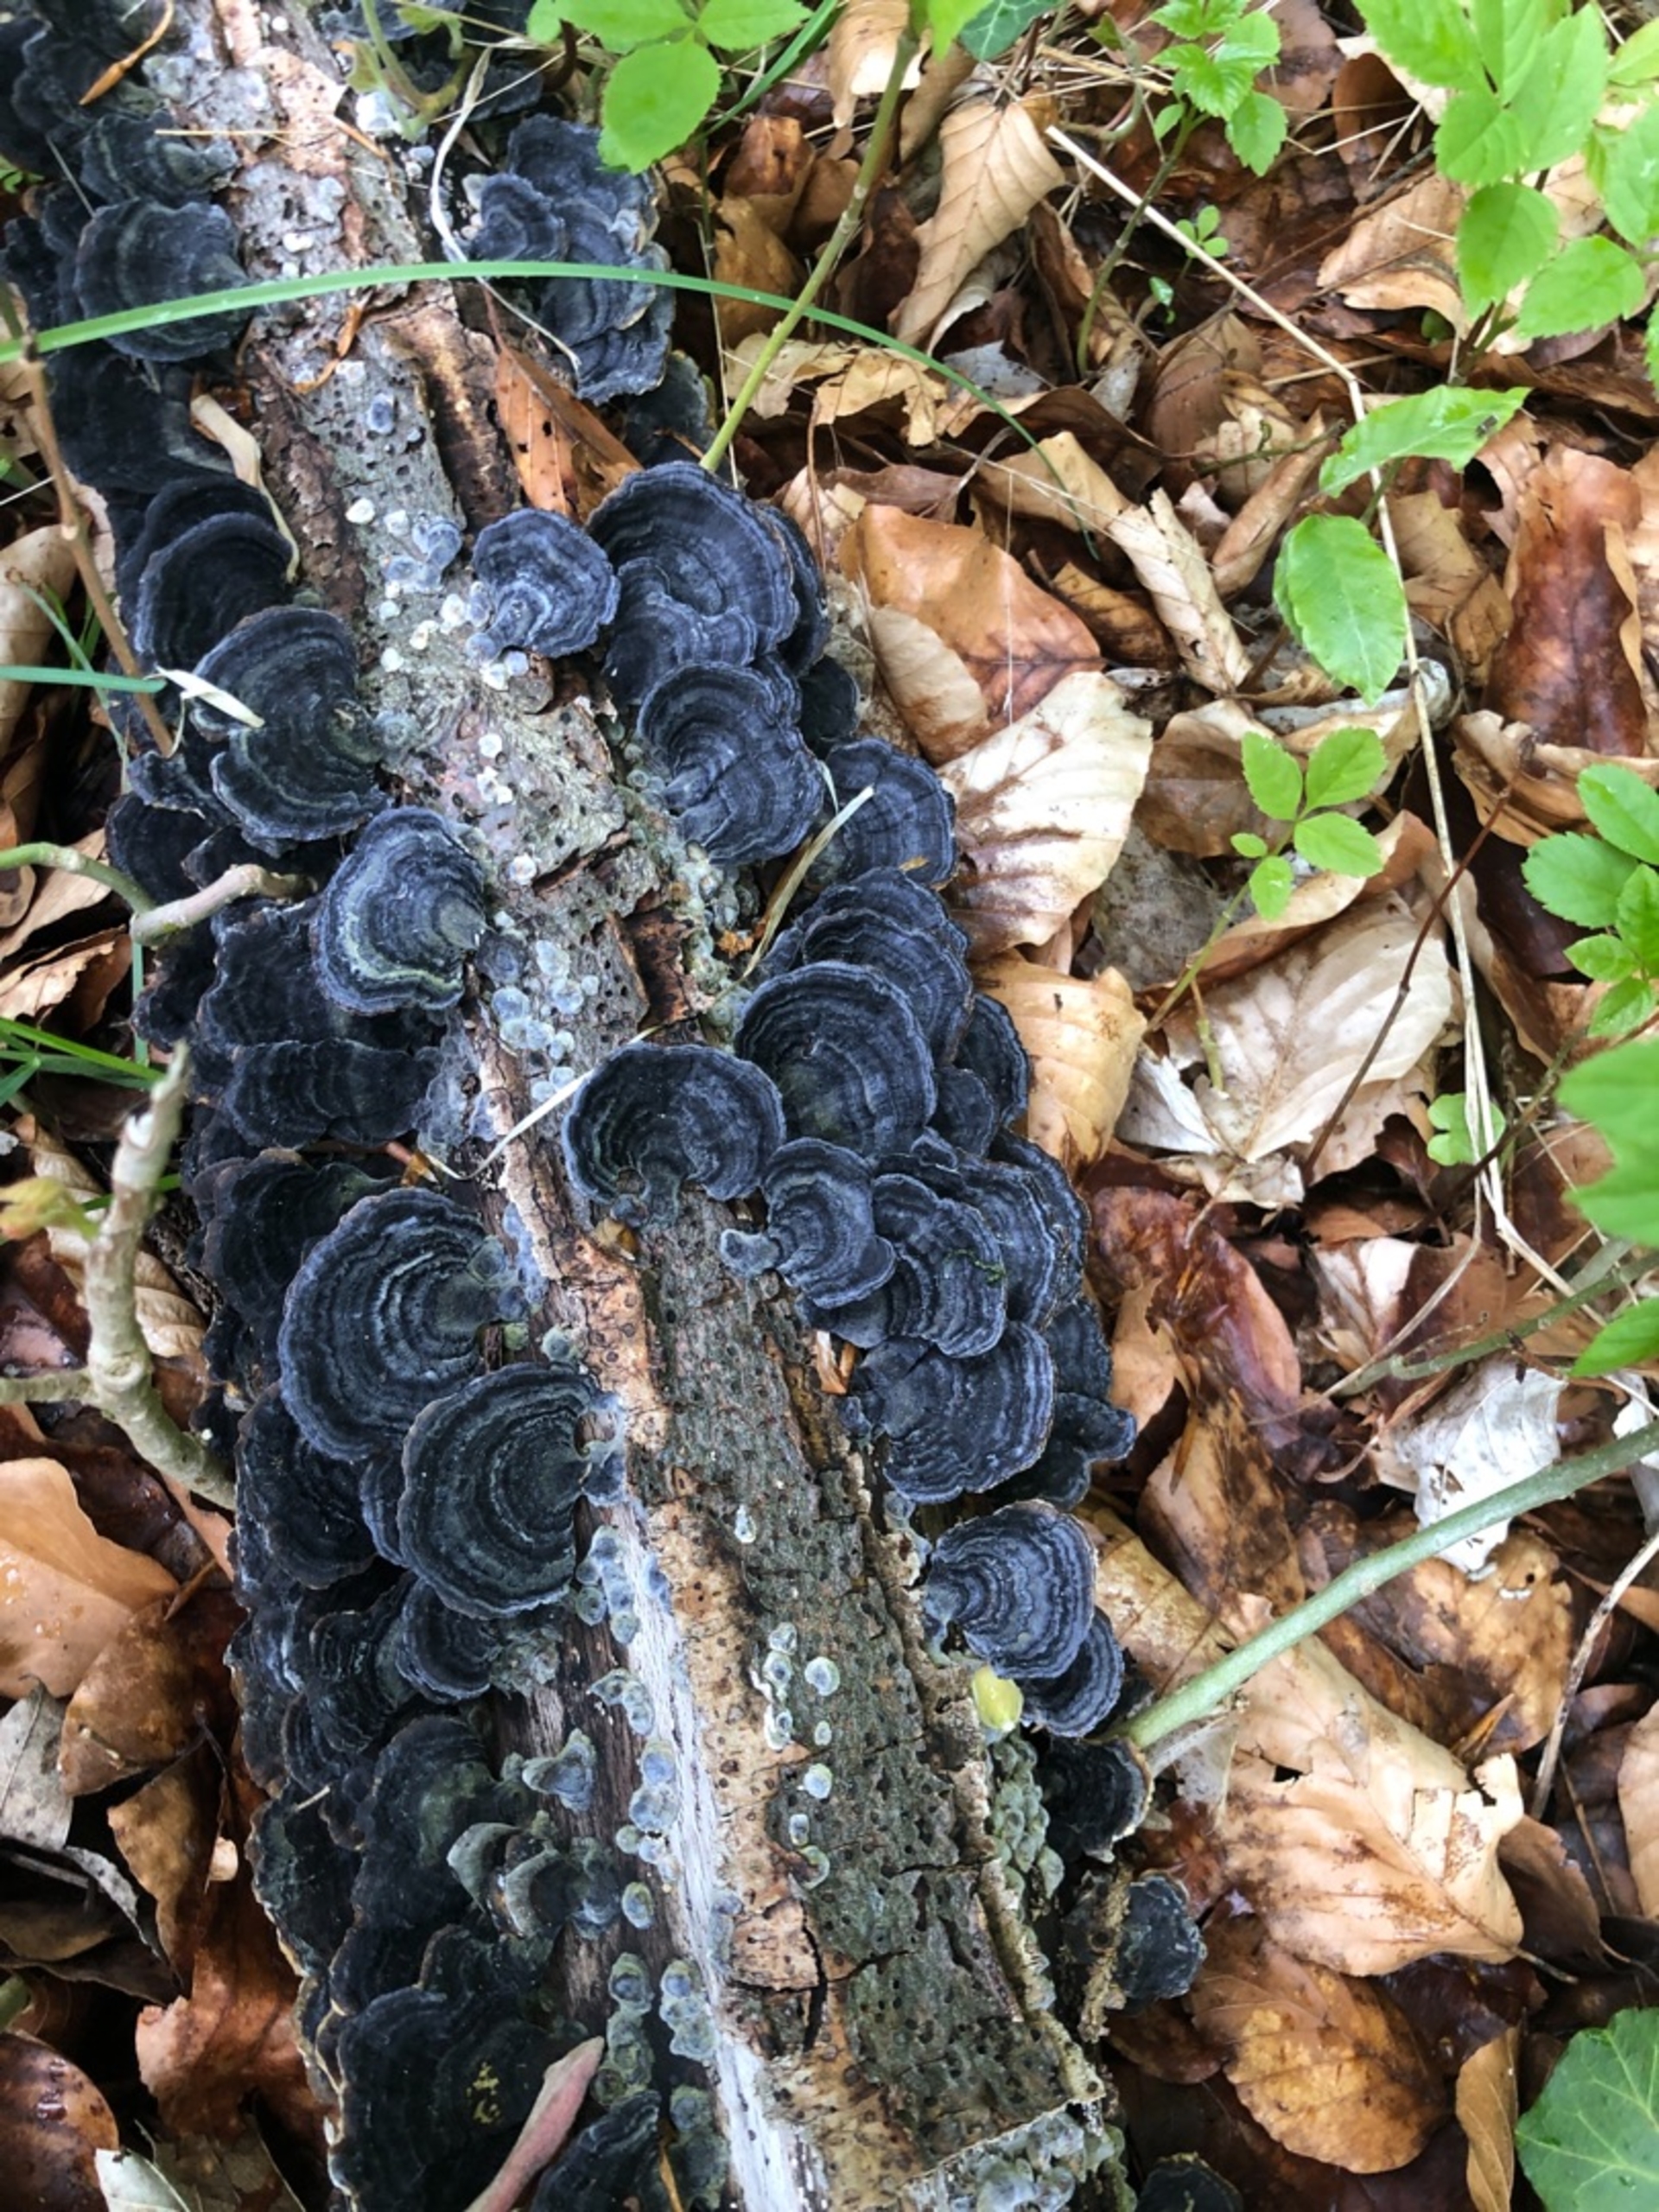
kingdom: Fungi
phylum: Basidiomycota
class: Agaricomycetes
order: Polyporales
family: Polyporaceae
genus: Trametes
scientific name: Trametes versicolor
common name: Broget læderporesvamp
